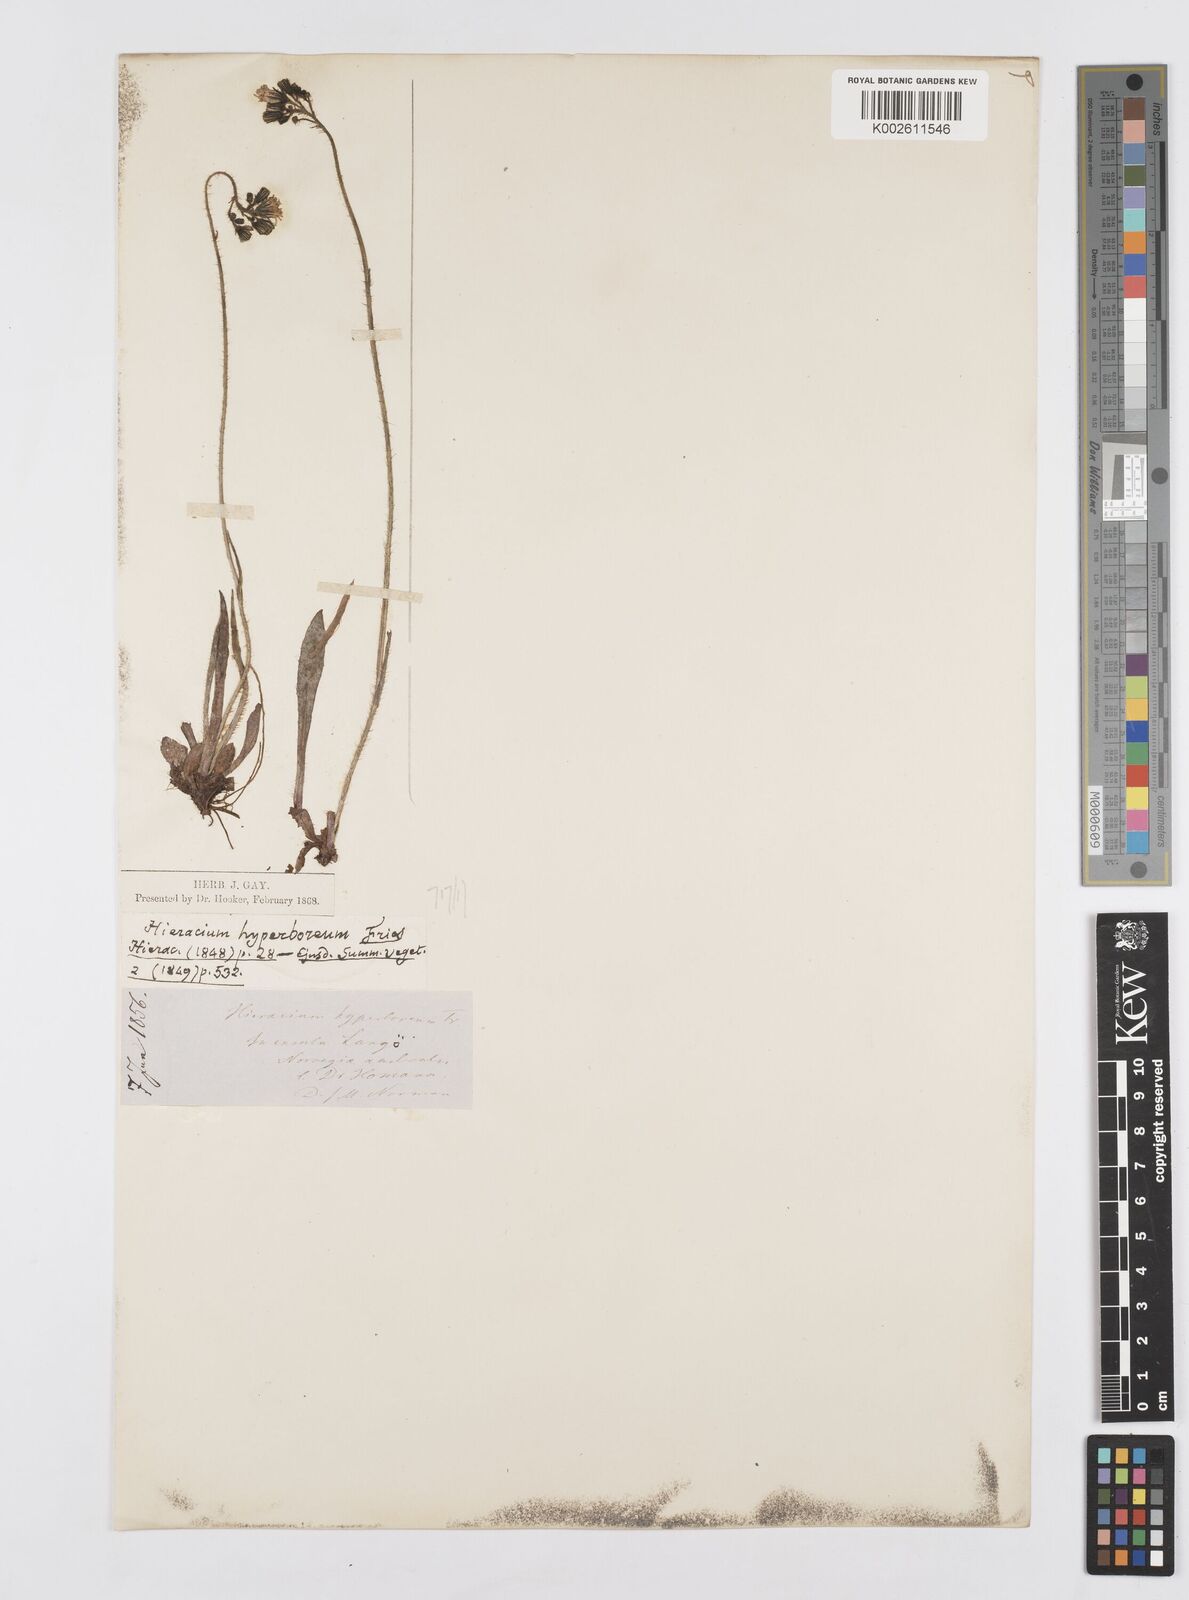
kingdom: Plantae
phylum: Tracheophyta
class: Magnoliopsida
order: Asterales
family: Asteraceae
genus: Pilosella
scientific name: Pilosella hyperborea
